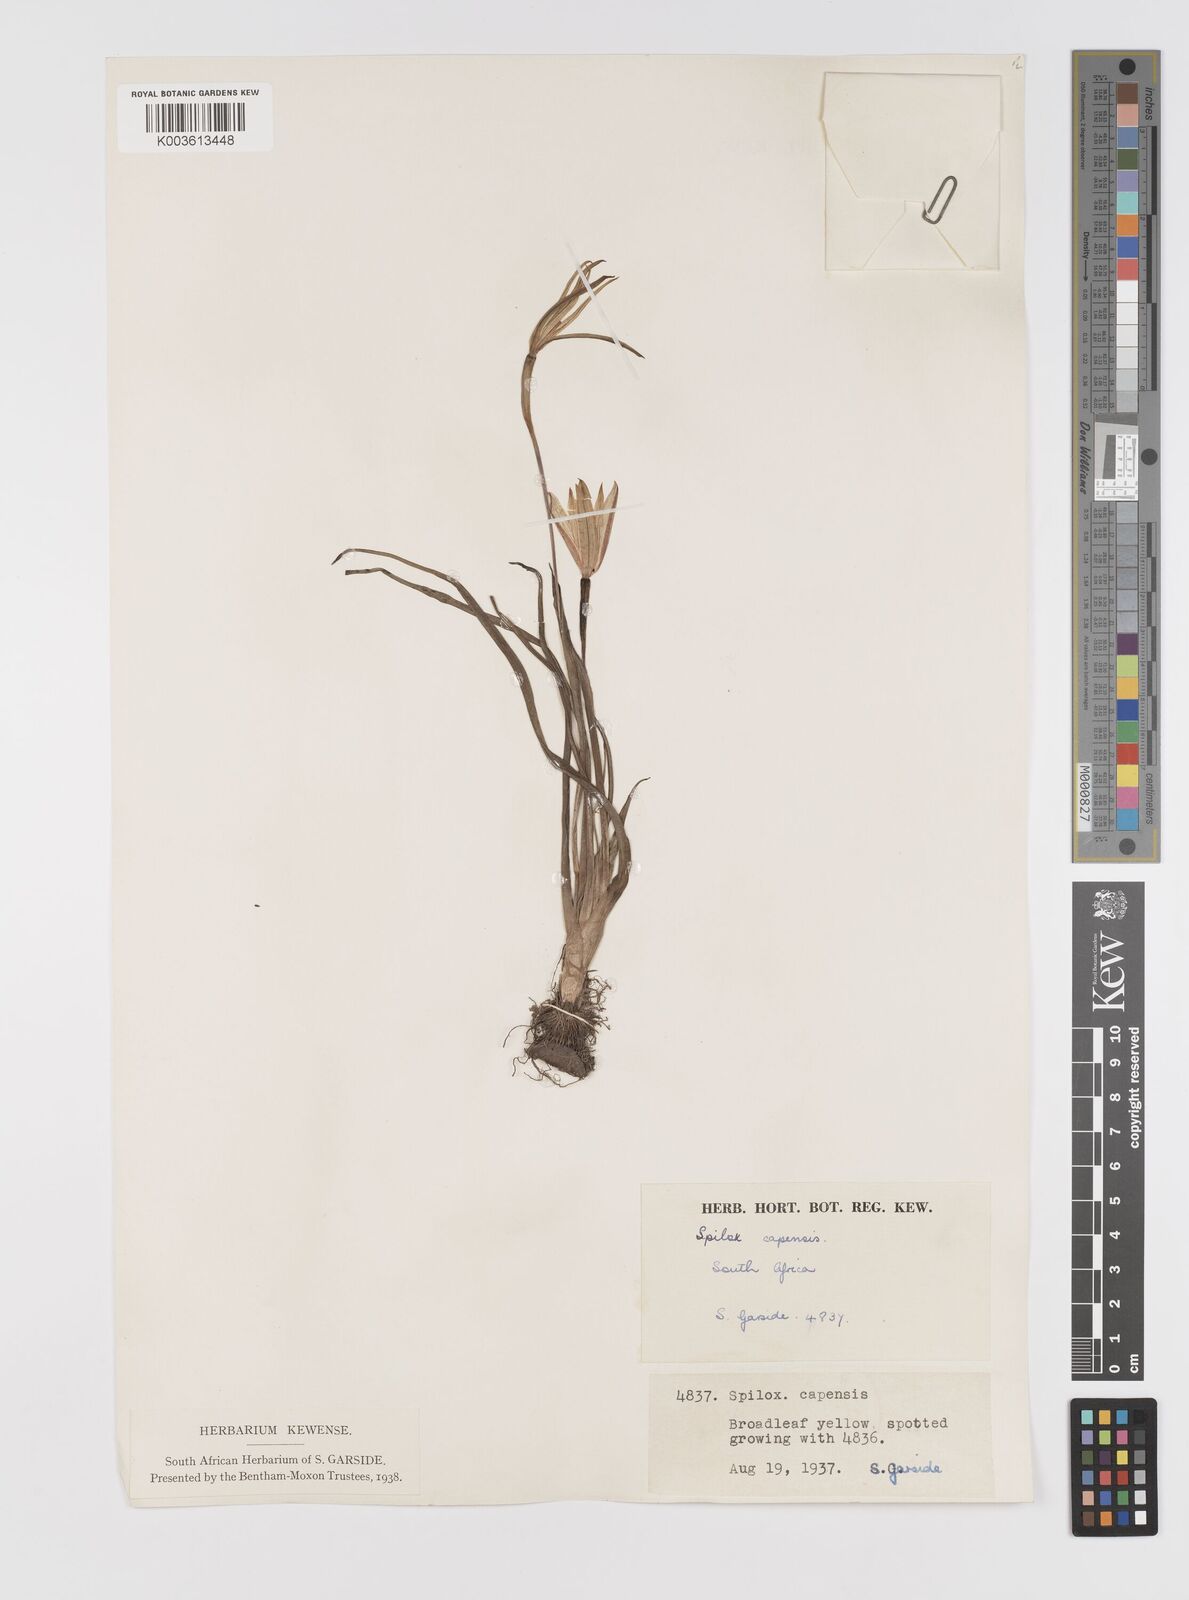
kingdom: Plantae
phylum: Tracheophyta
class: Liliopsida
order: Asparagales
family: Hypoxidaceae
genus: Pauridia
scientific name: Pauridia capensis
